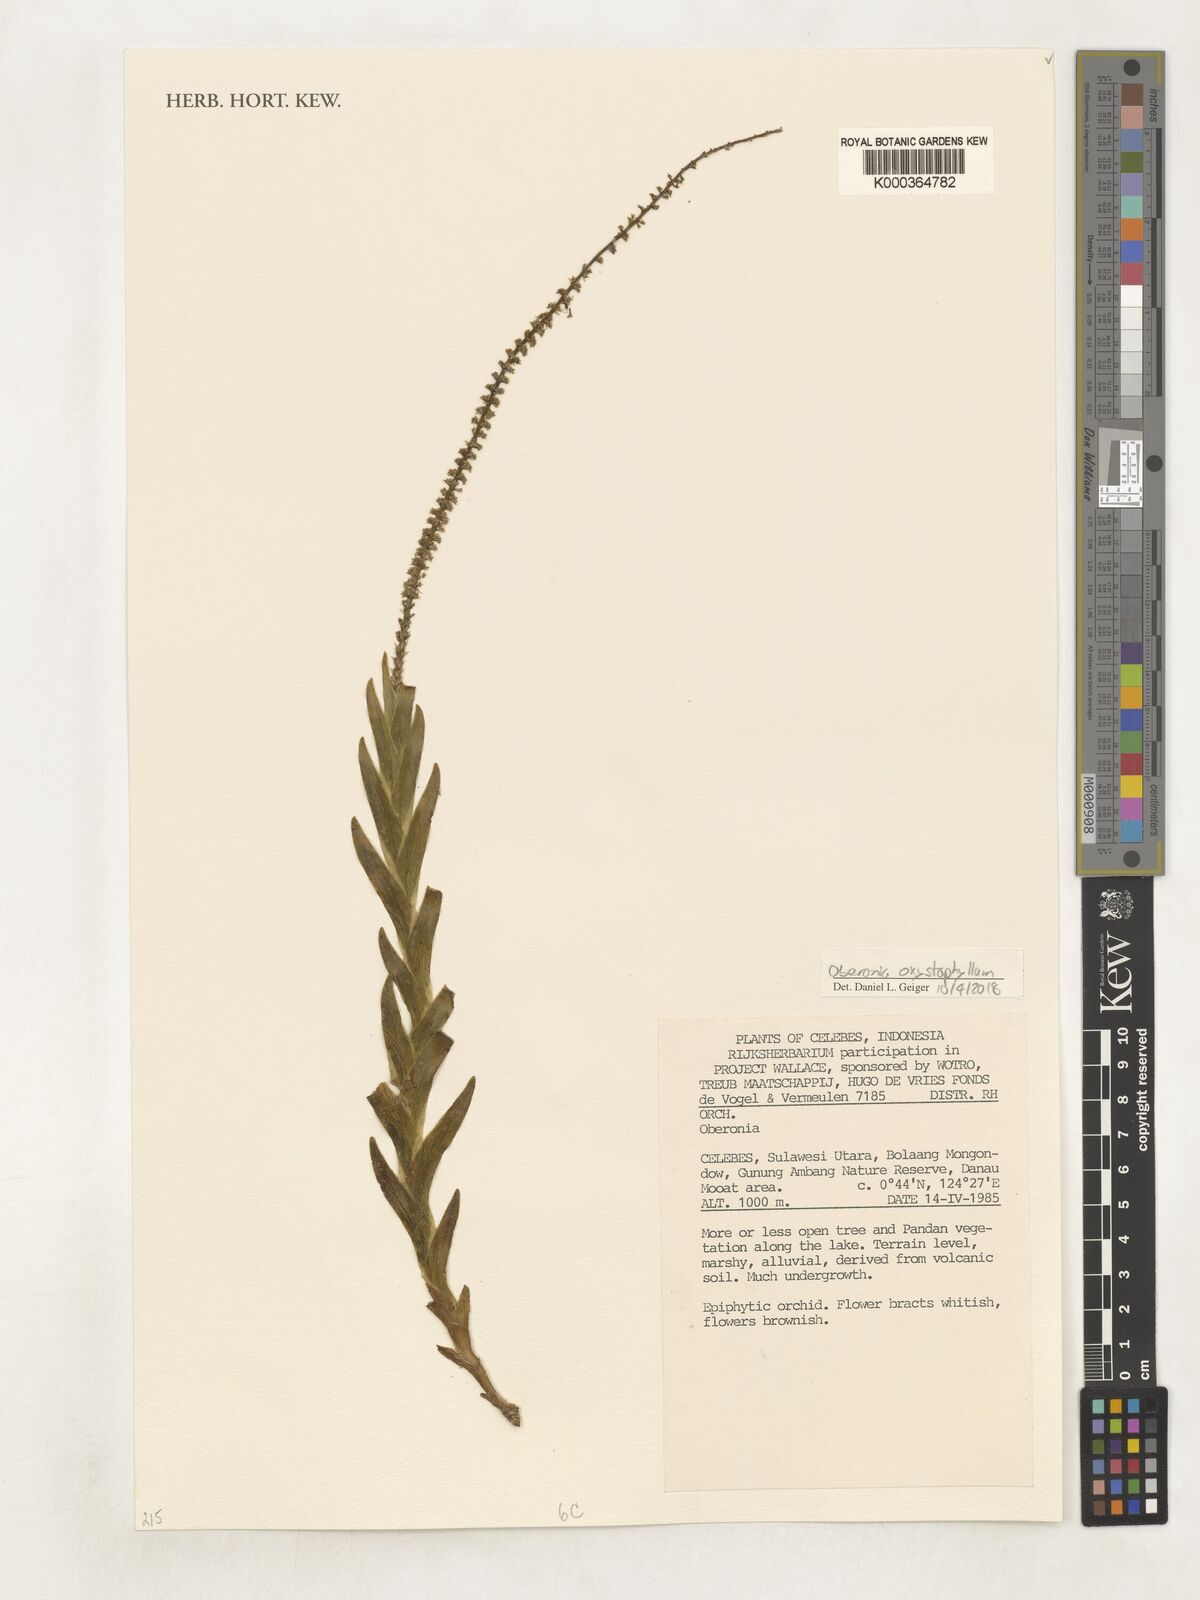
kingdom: Plantae
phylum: Tracheophyta
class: Liliopsida
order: Asparagales
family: Orchidaceae
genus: Oberonia
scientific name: Oberonia
